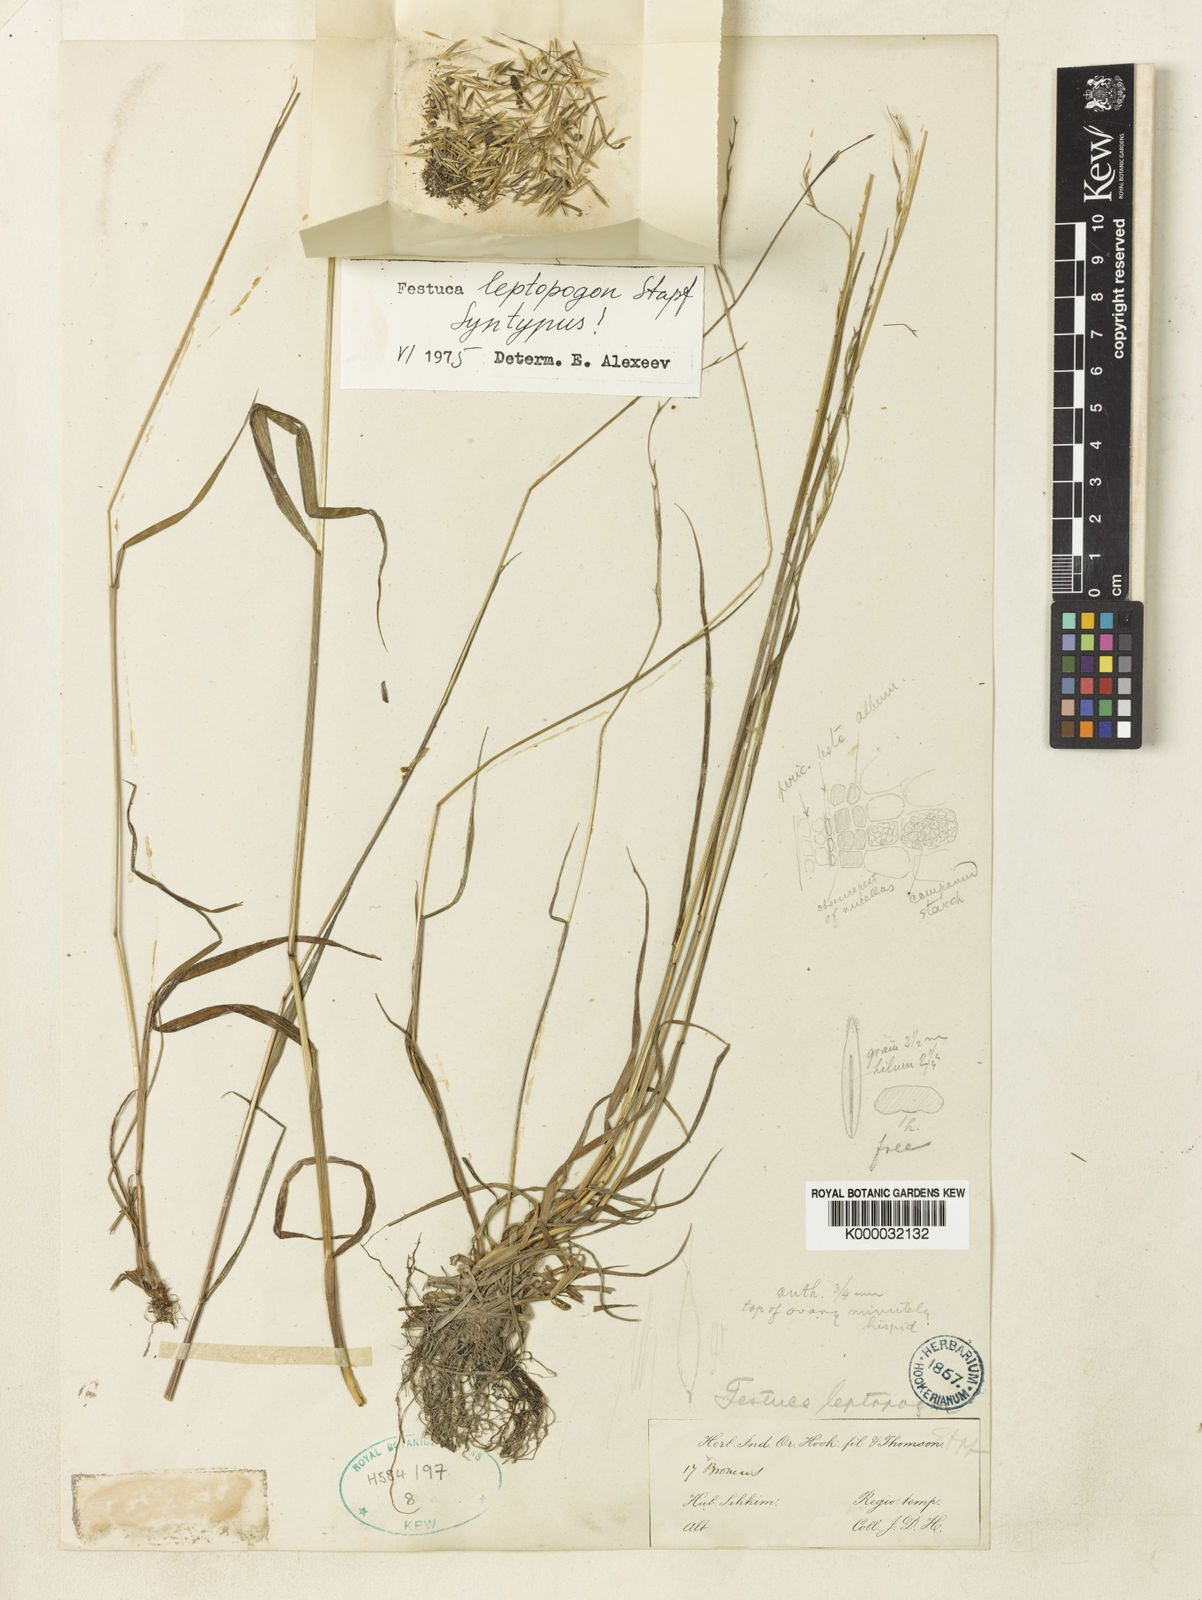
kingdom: Plantae
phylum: Tracheophyta
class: Liliopsida
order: Poales
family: Poaceae
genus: Festuca
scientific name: Festuca leptopogon
